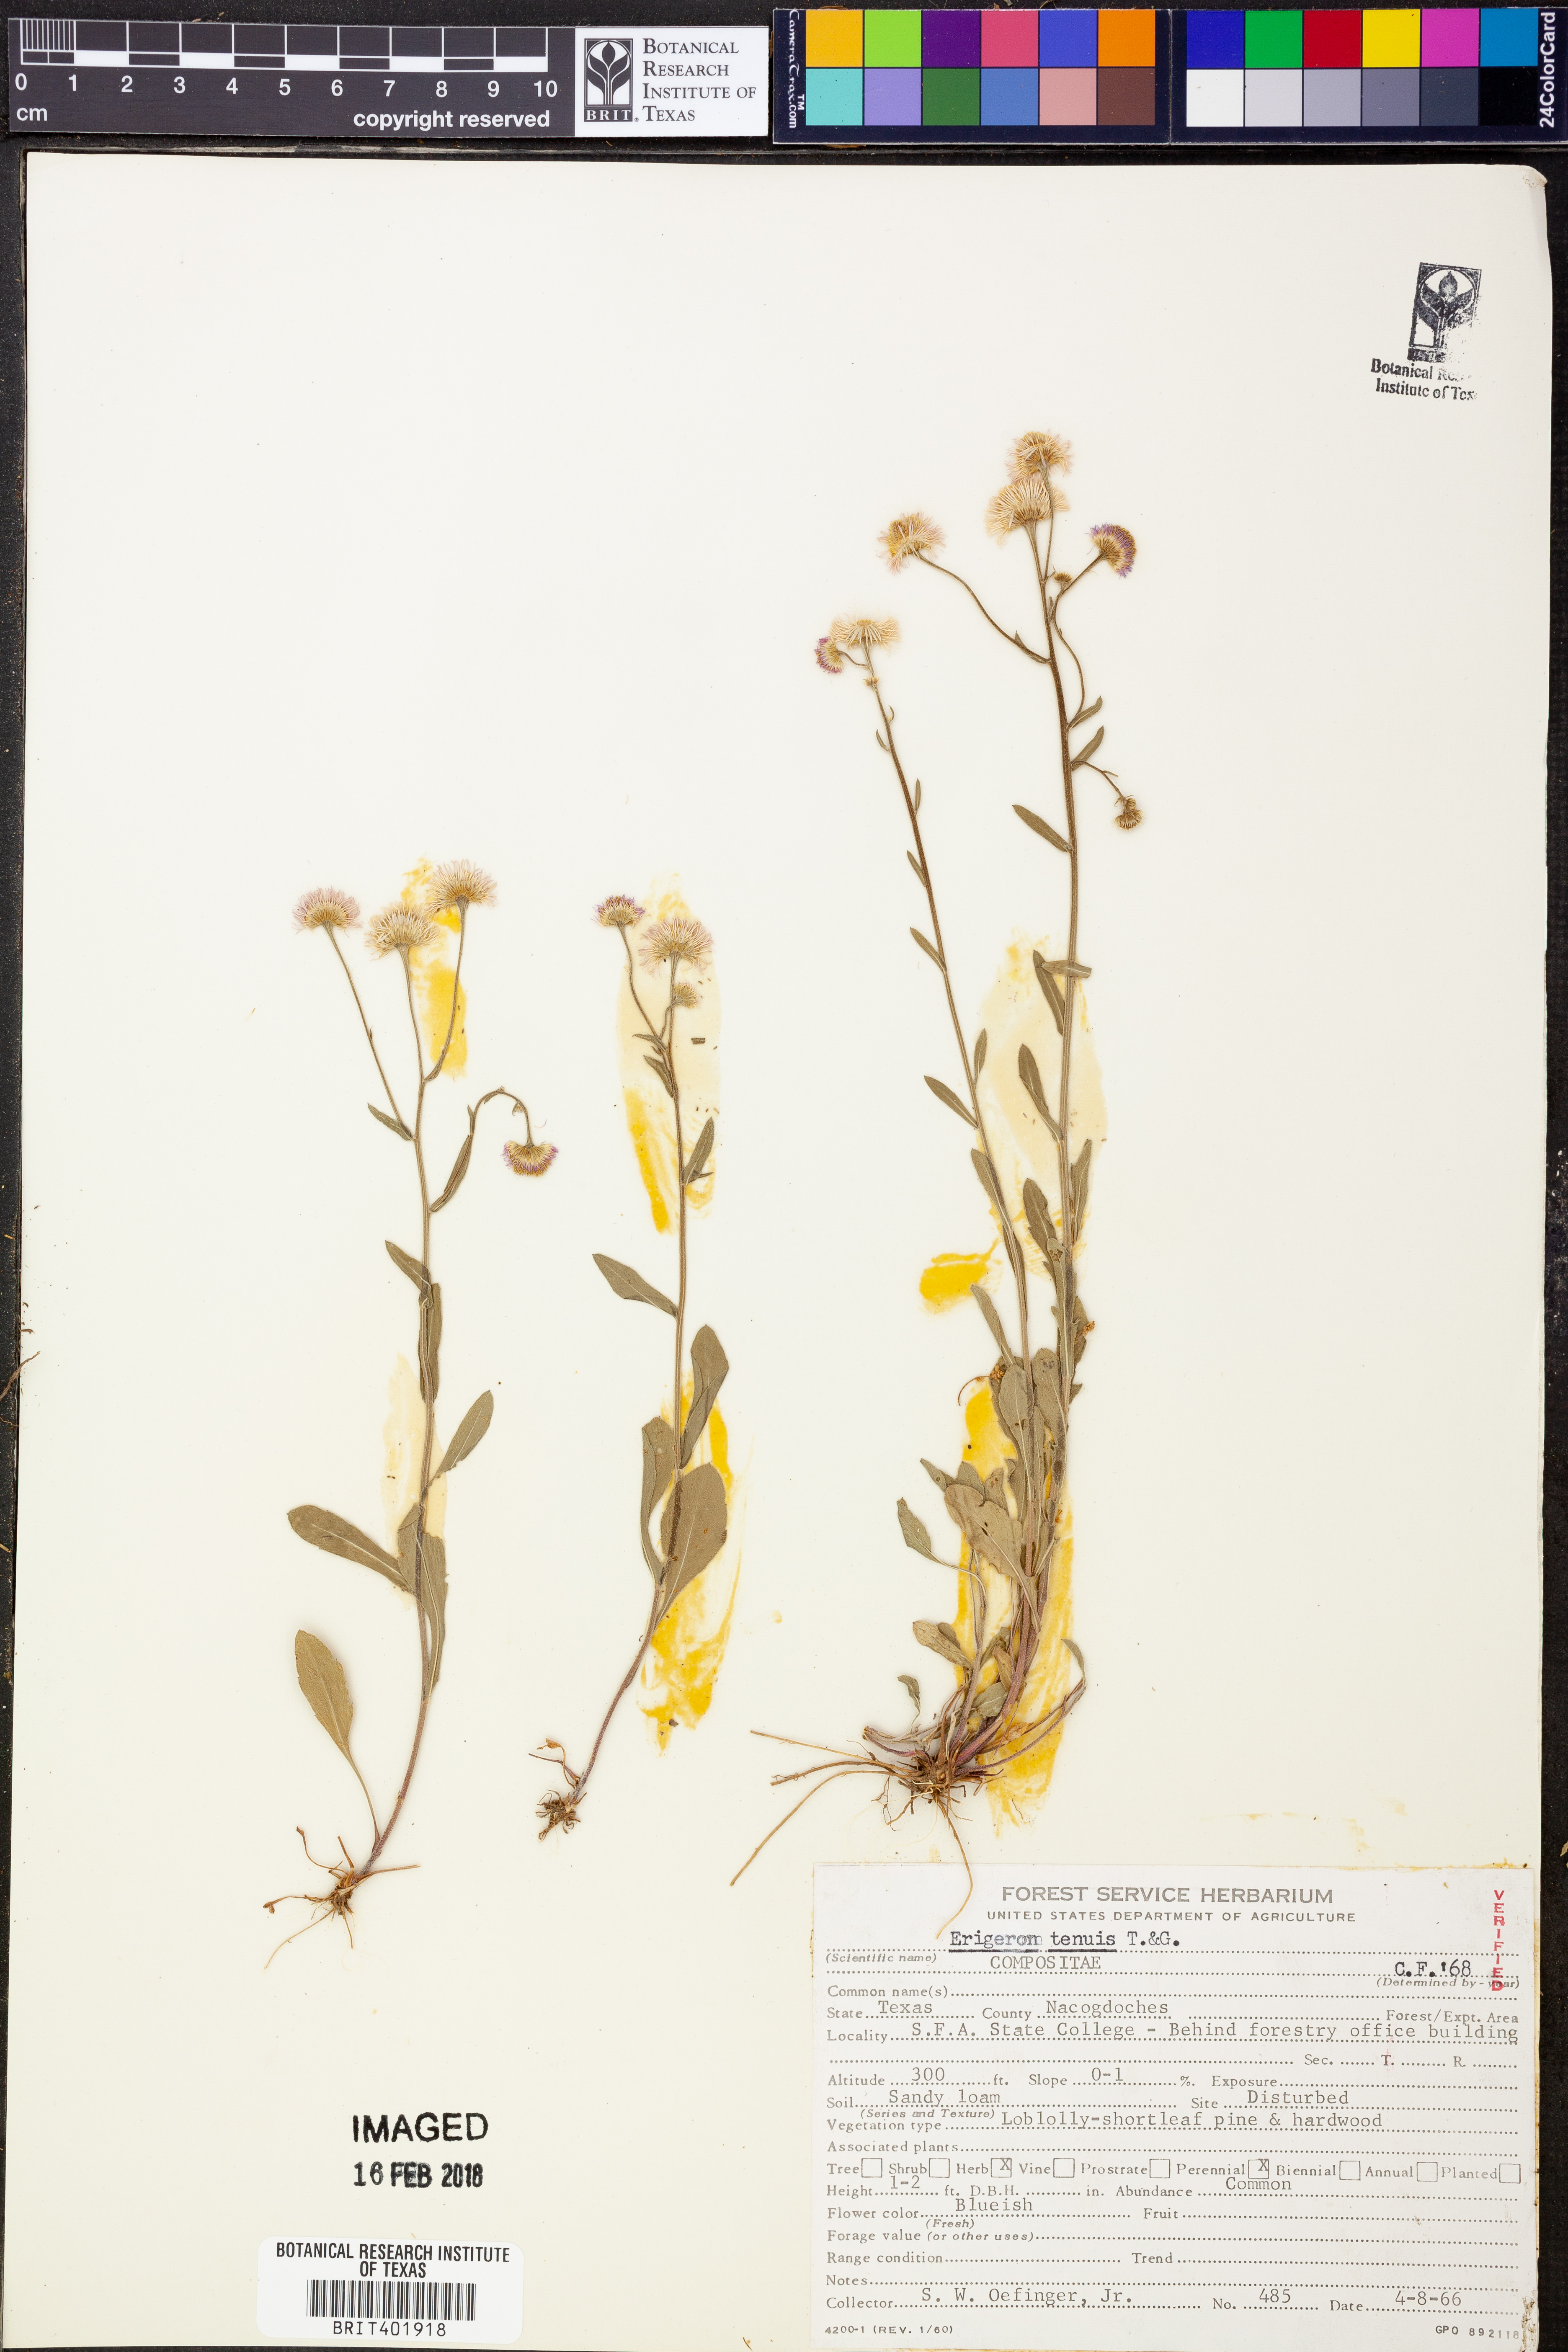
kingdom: Plantae
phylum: Tracheophyta
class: Magnoliopsida
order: Asterales
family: Asteraceae
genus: Erigeron
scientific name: Erigeron tenuis
